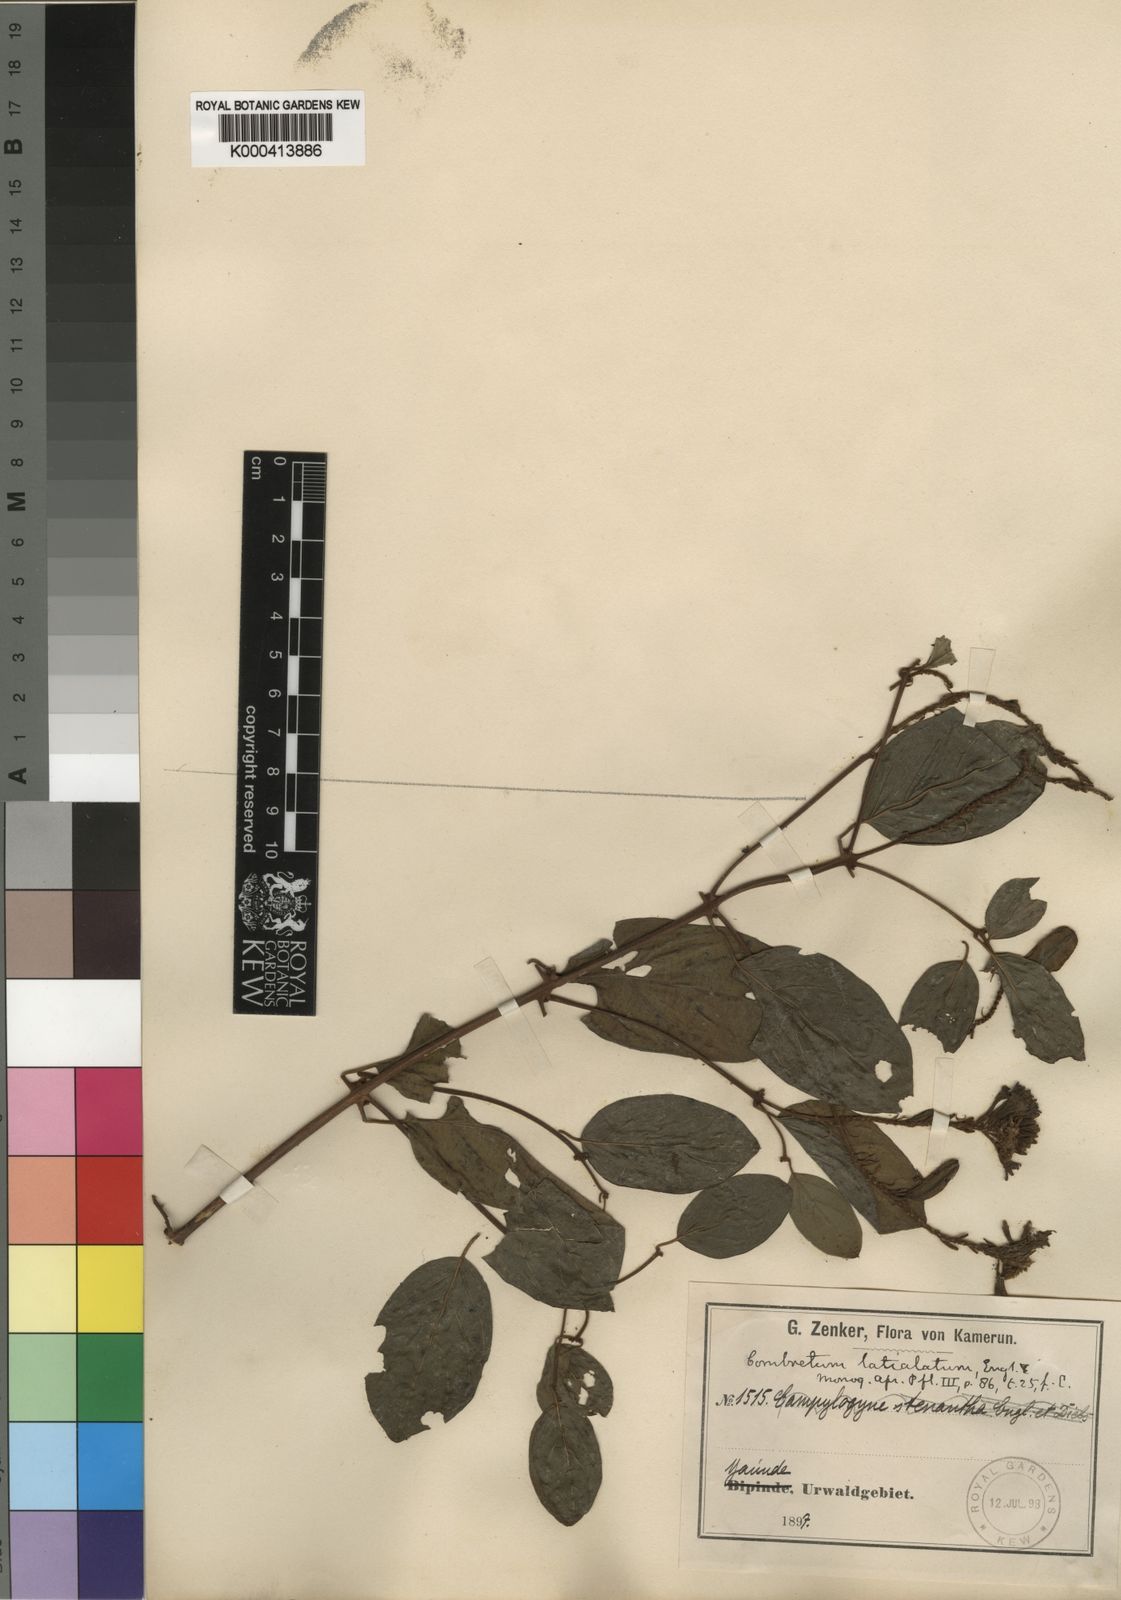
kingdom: Plantae
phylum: Tracheophyta
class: Magnoliopsida
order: Myrtales
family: Combretaceae
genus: Combretum
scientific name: Combretum latialatum
